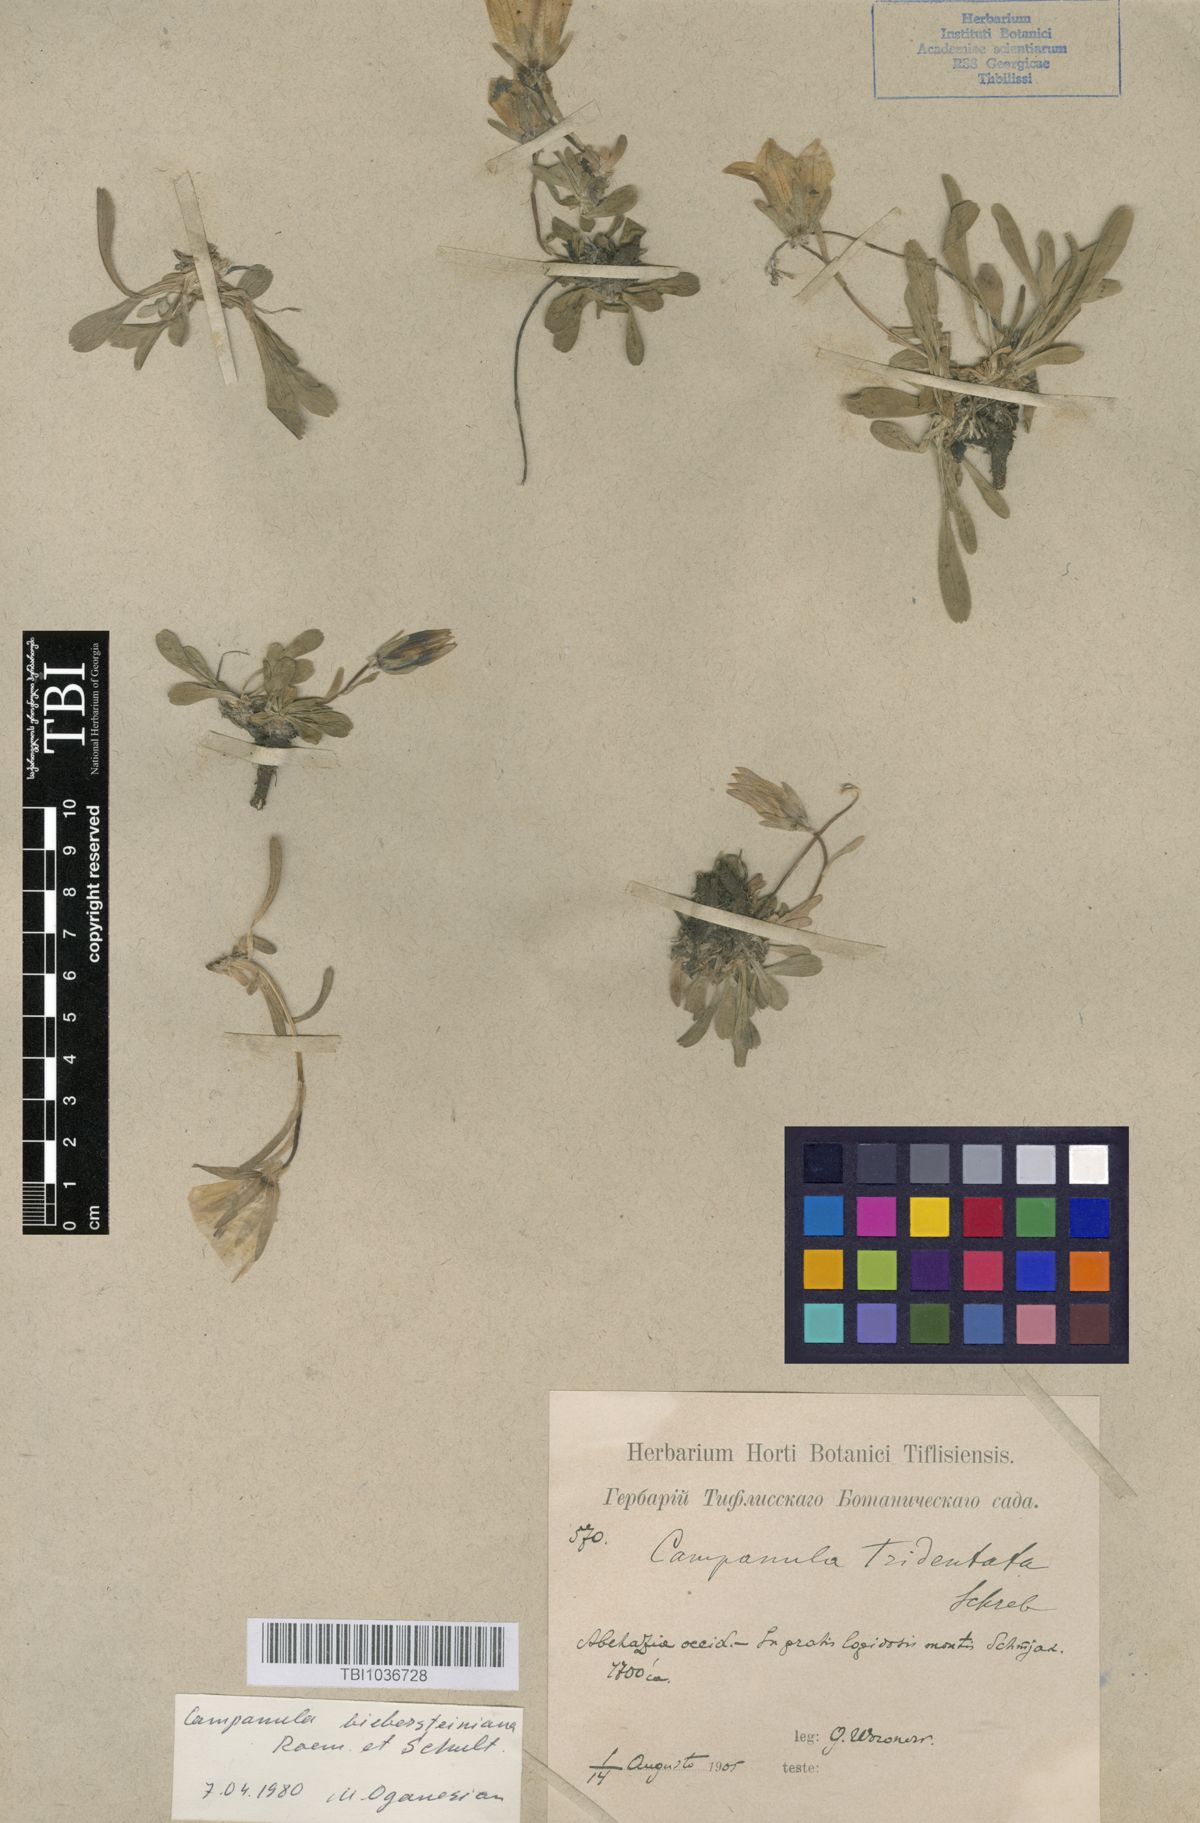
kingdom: Plantae
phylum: Tracheophyta
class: Magnoliopsida
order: Asterales
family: Campanulaceae
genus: Campanula
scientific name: Campanula tridentata
